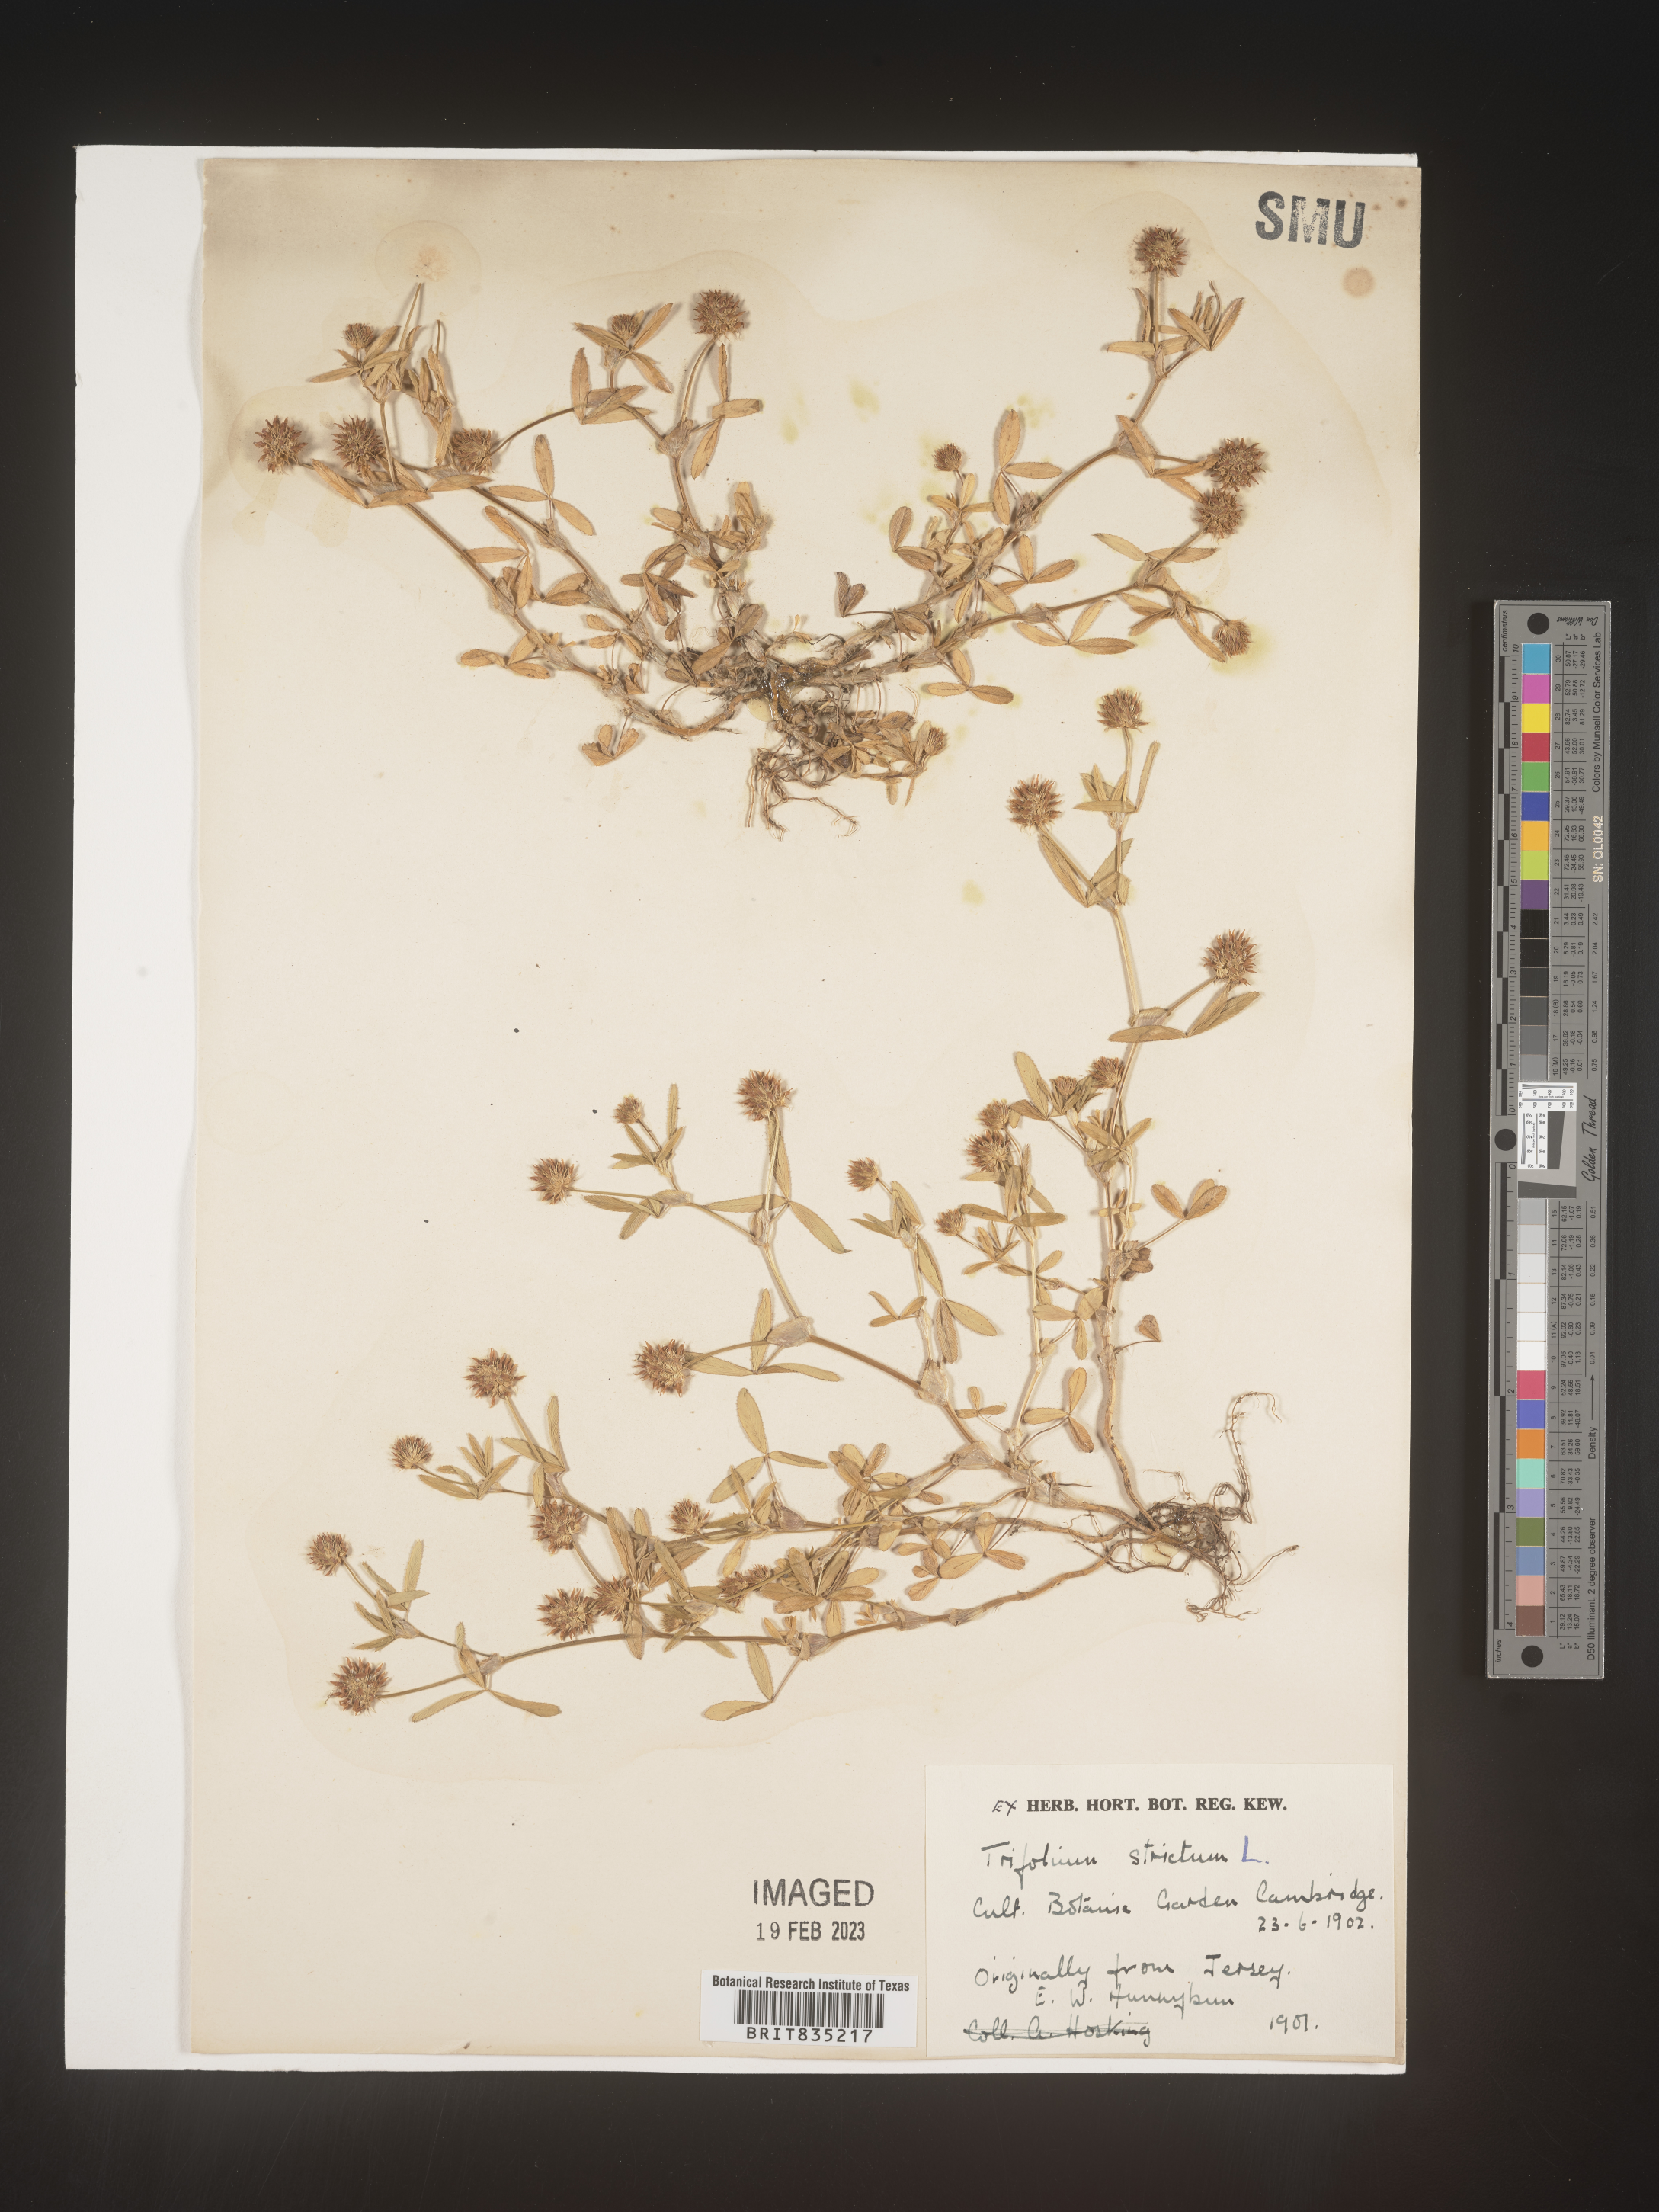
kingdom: Plantae
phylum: Tracheophyta
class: Magnoliopsida
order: Fabales
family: Fabaceae
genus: Trifolium
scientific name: Trifolium
